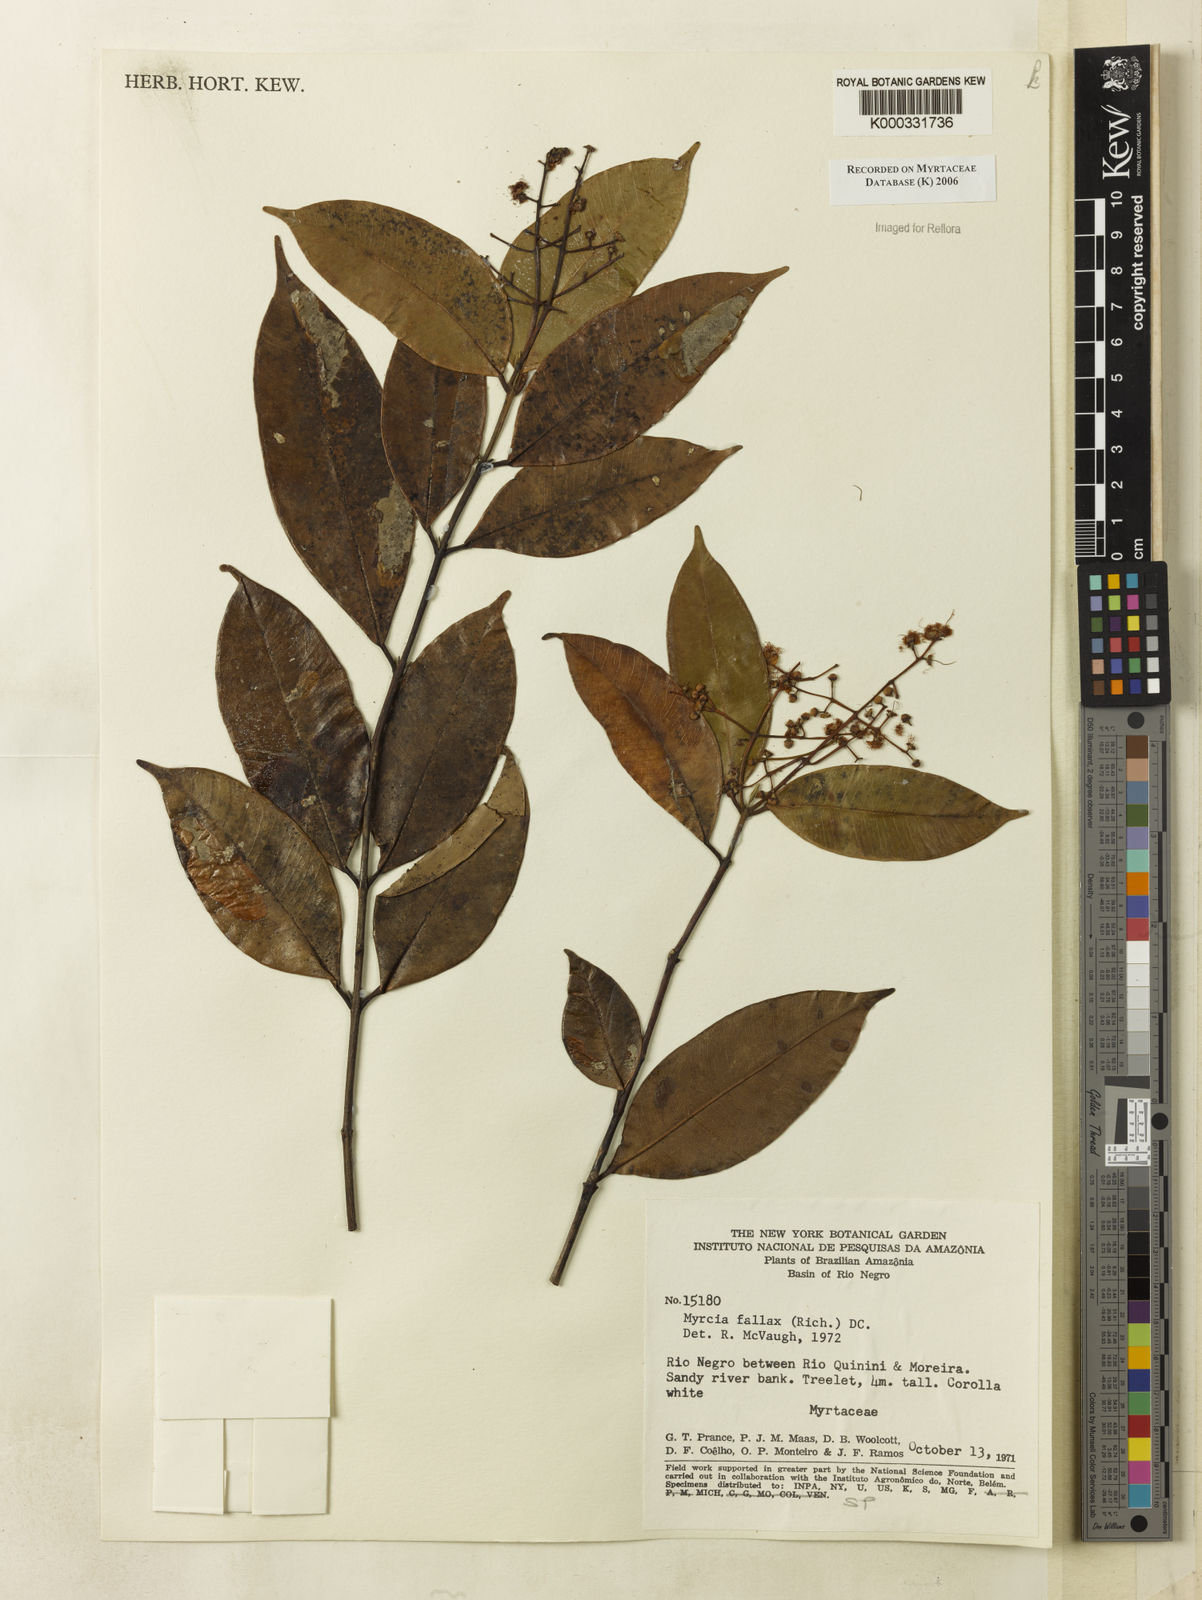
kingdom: Plantae
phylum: Tracheophyta
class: Magnoliopsida
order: Myrtales
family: Myrtaceae
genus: Myrcia
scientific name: Myrcia splendens
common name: Surinam cherry
